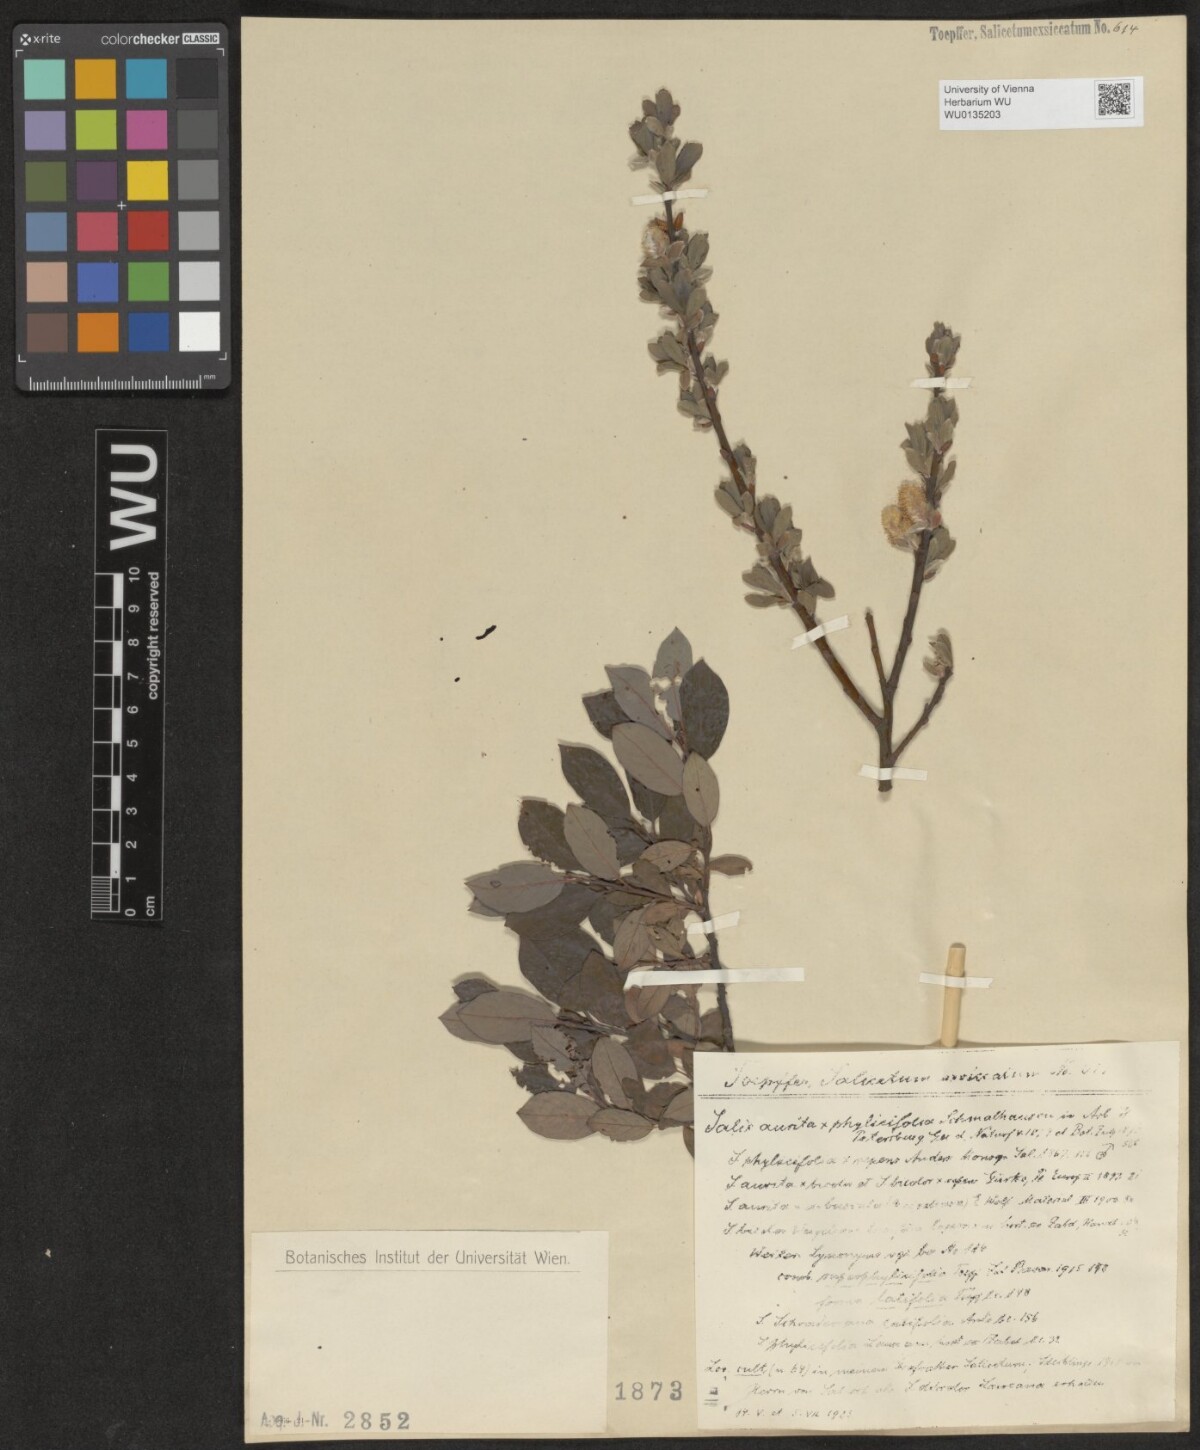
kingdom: Plantae
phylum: Tracheophyta
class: Magnoliopsida
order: Malpighiales
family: Salicaceae
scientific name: Salicaceae
